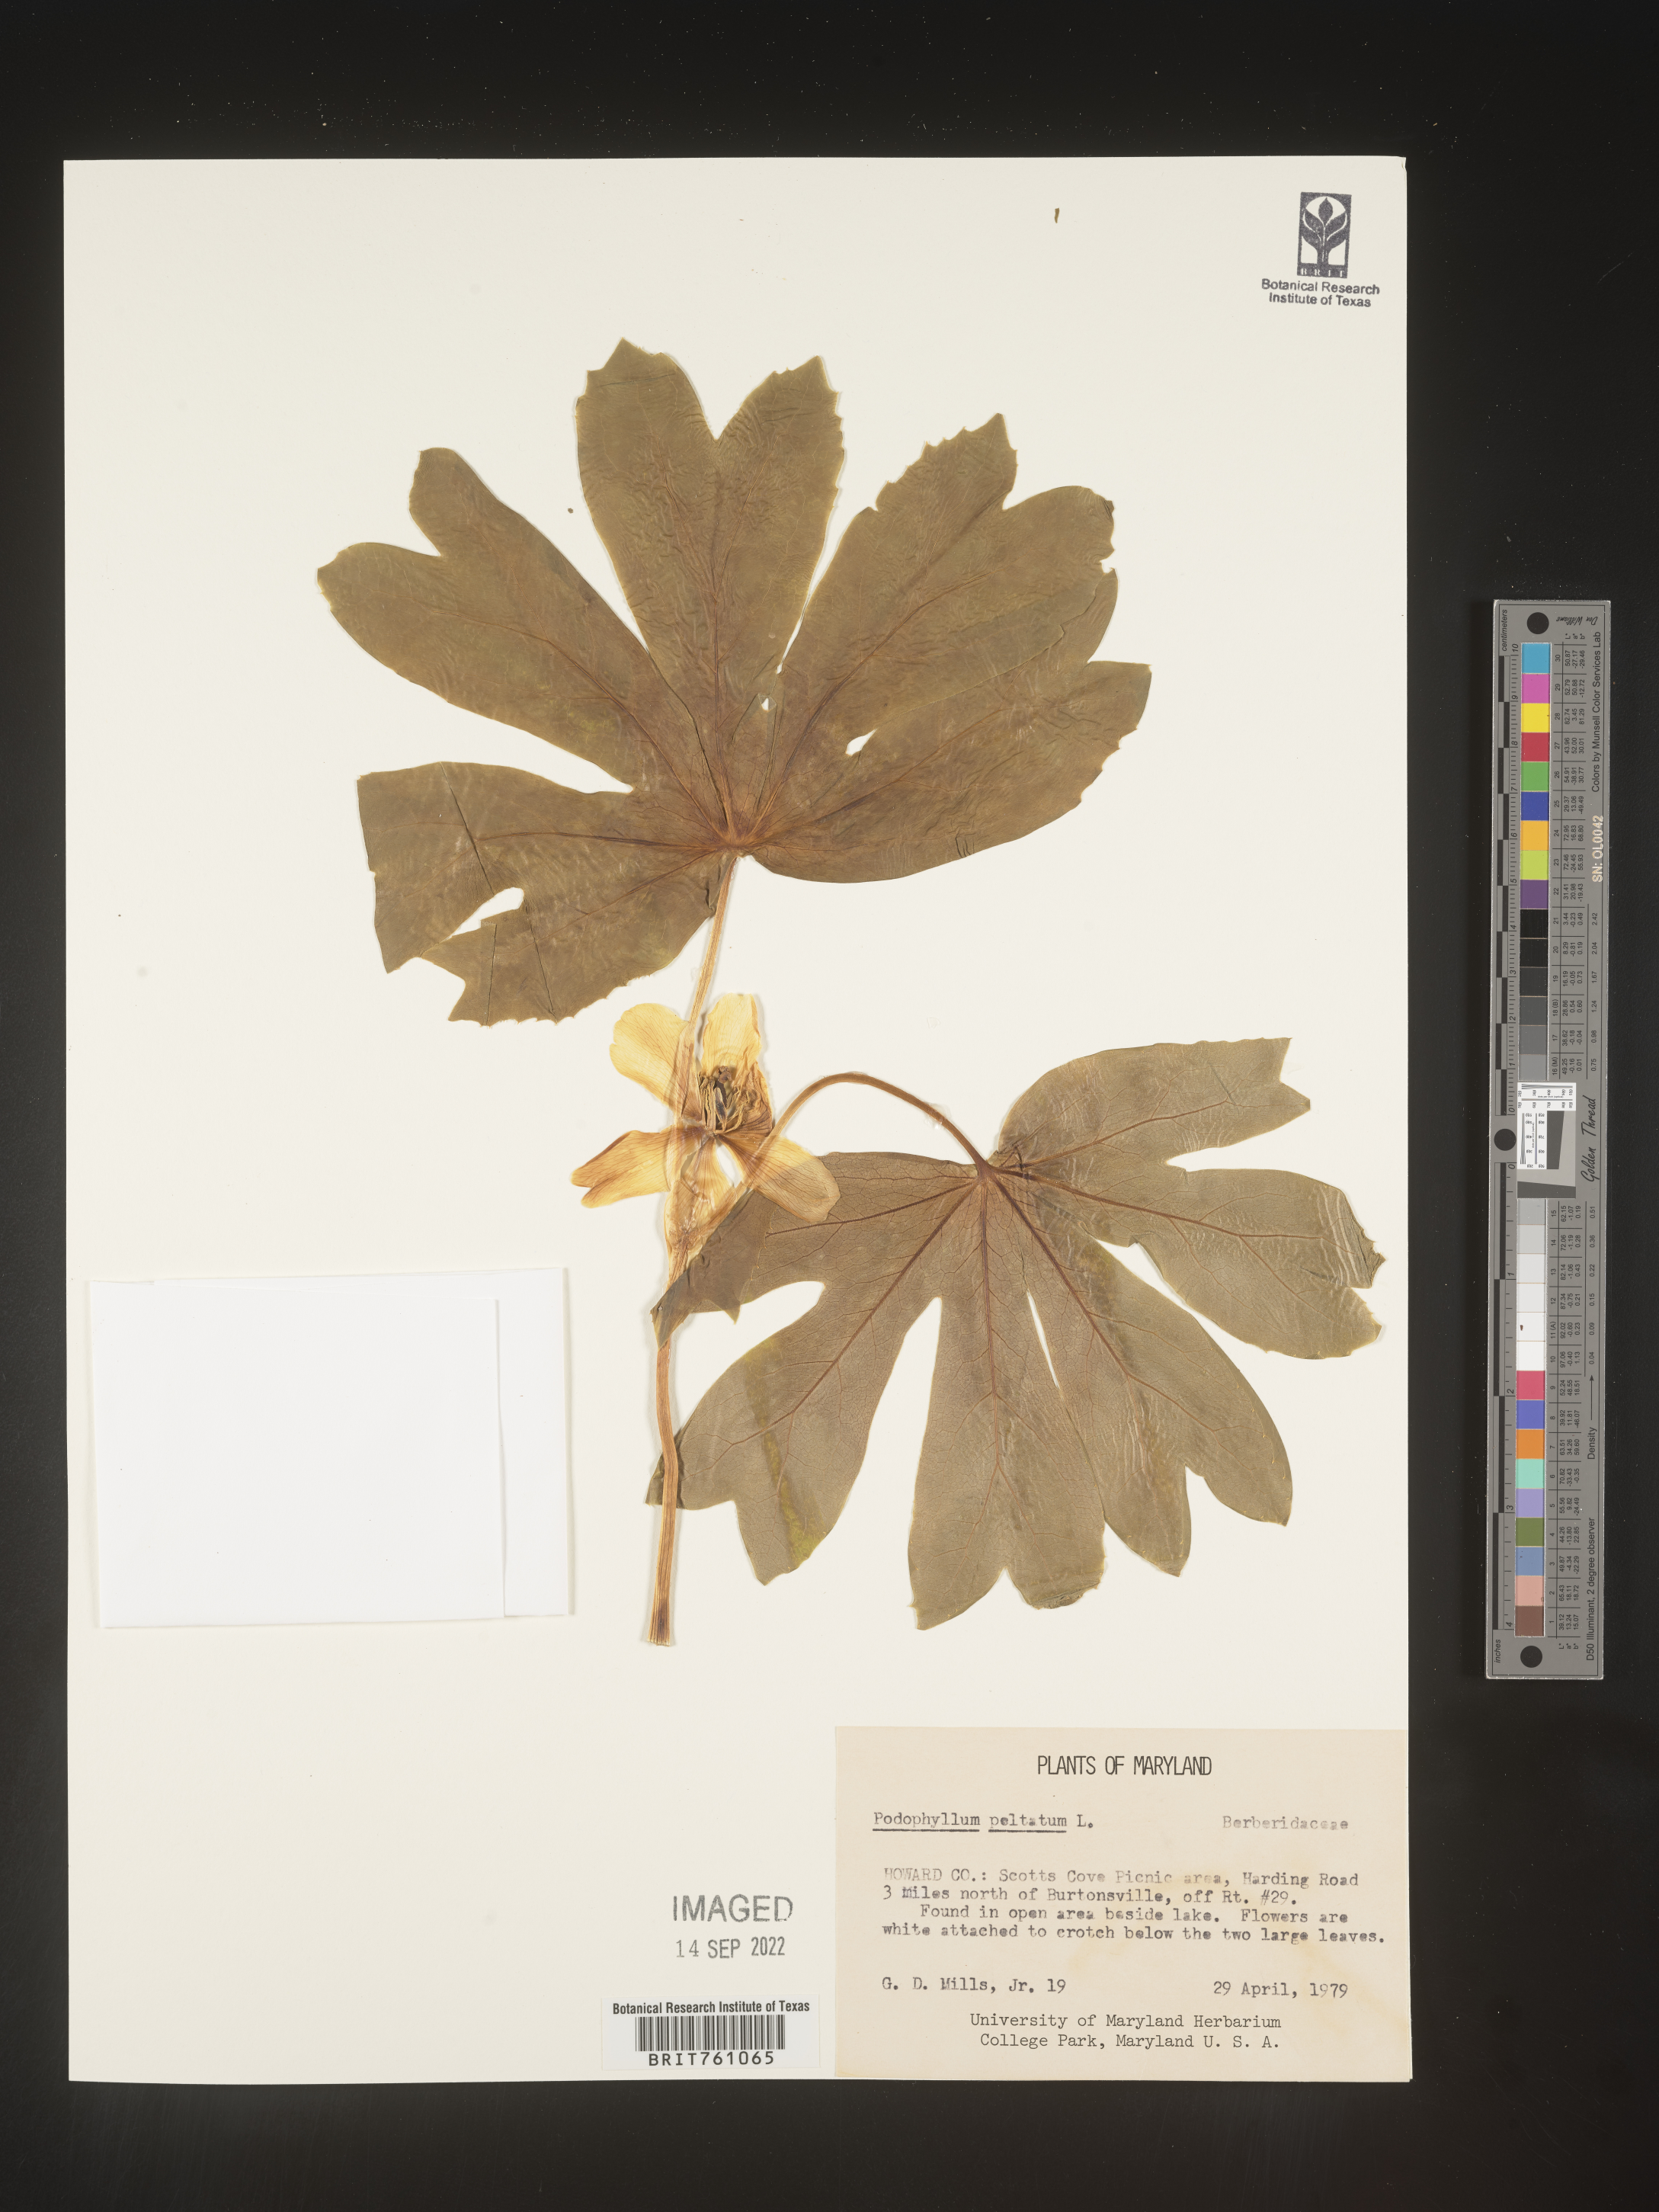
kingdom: Plantae
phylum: Tracheophyta
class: Magnoliopsida
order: Ranunculales
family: Berberidaceae
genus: Podophyllum
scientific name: Podophyllum peltatum
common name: Wild mandrake
